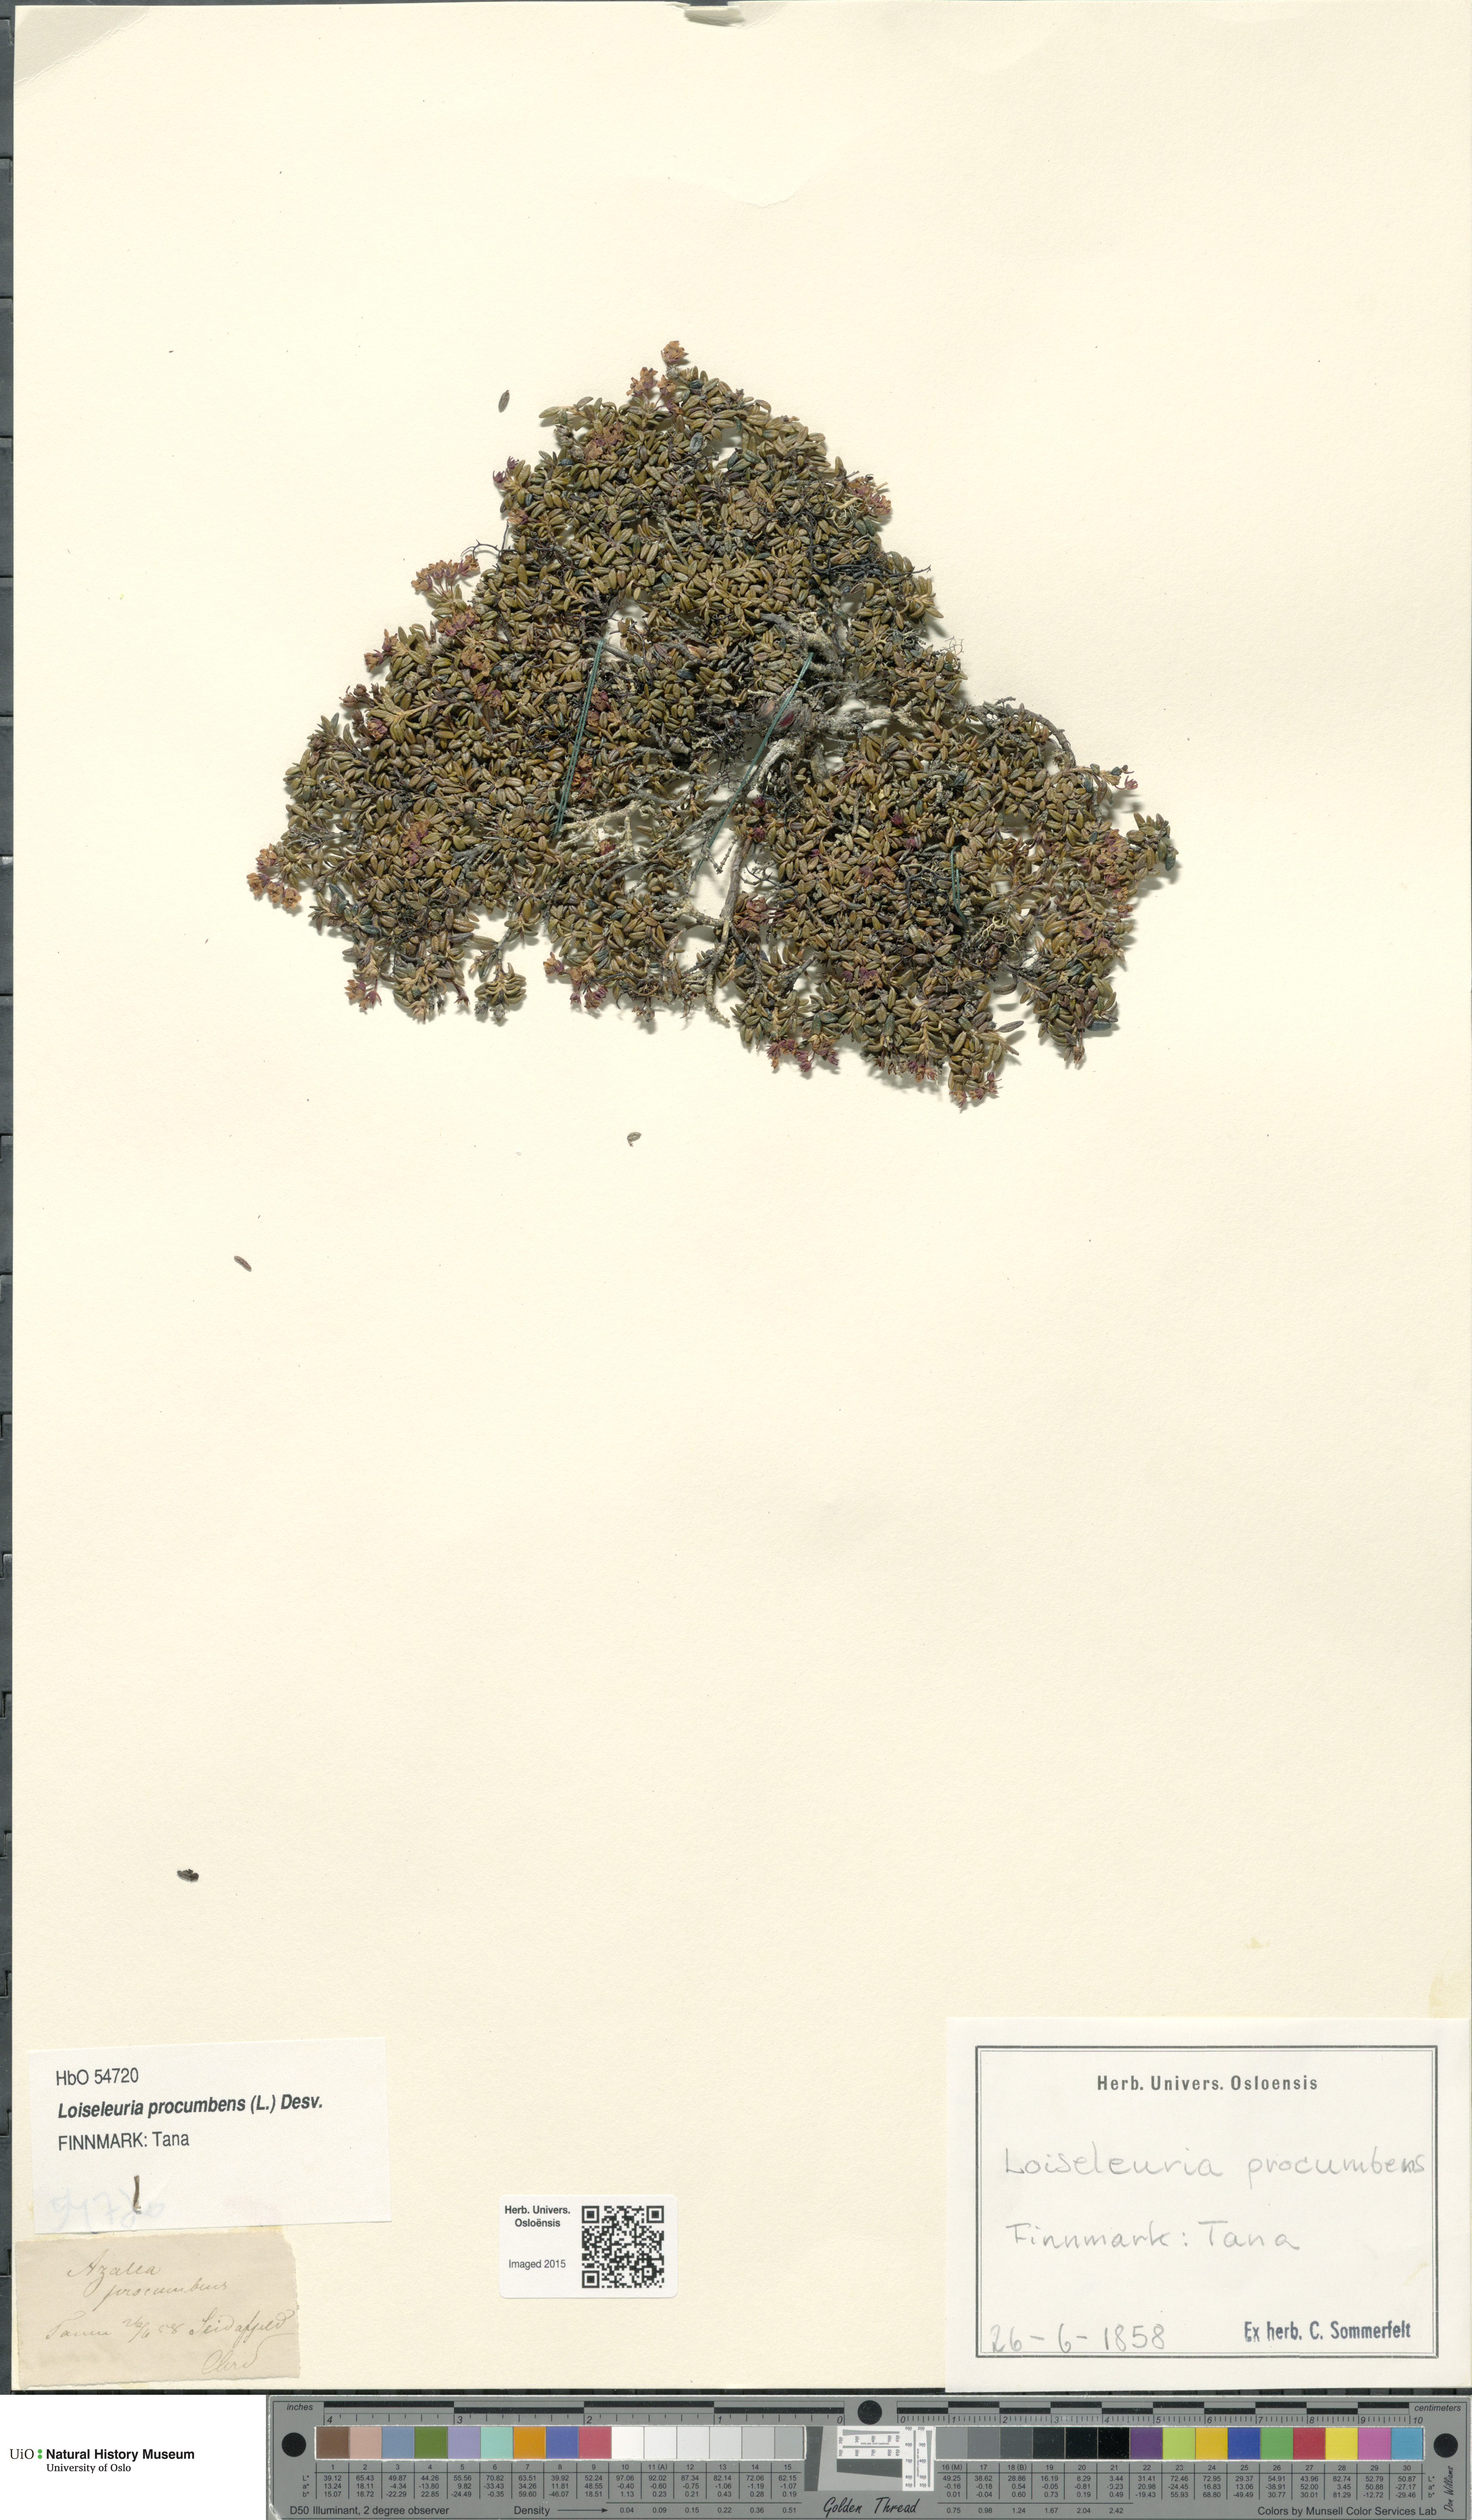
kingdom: Plantae
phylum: Tracheophyta
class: Magnoliopsida
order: Ericales
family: Ericaceae
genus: Kalmia
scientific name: Kalmia procumbens
